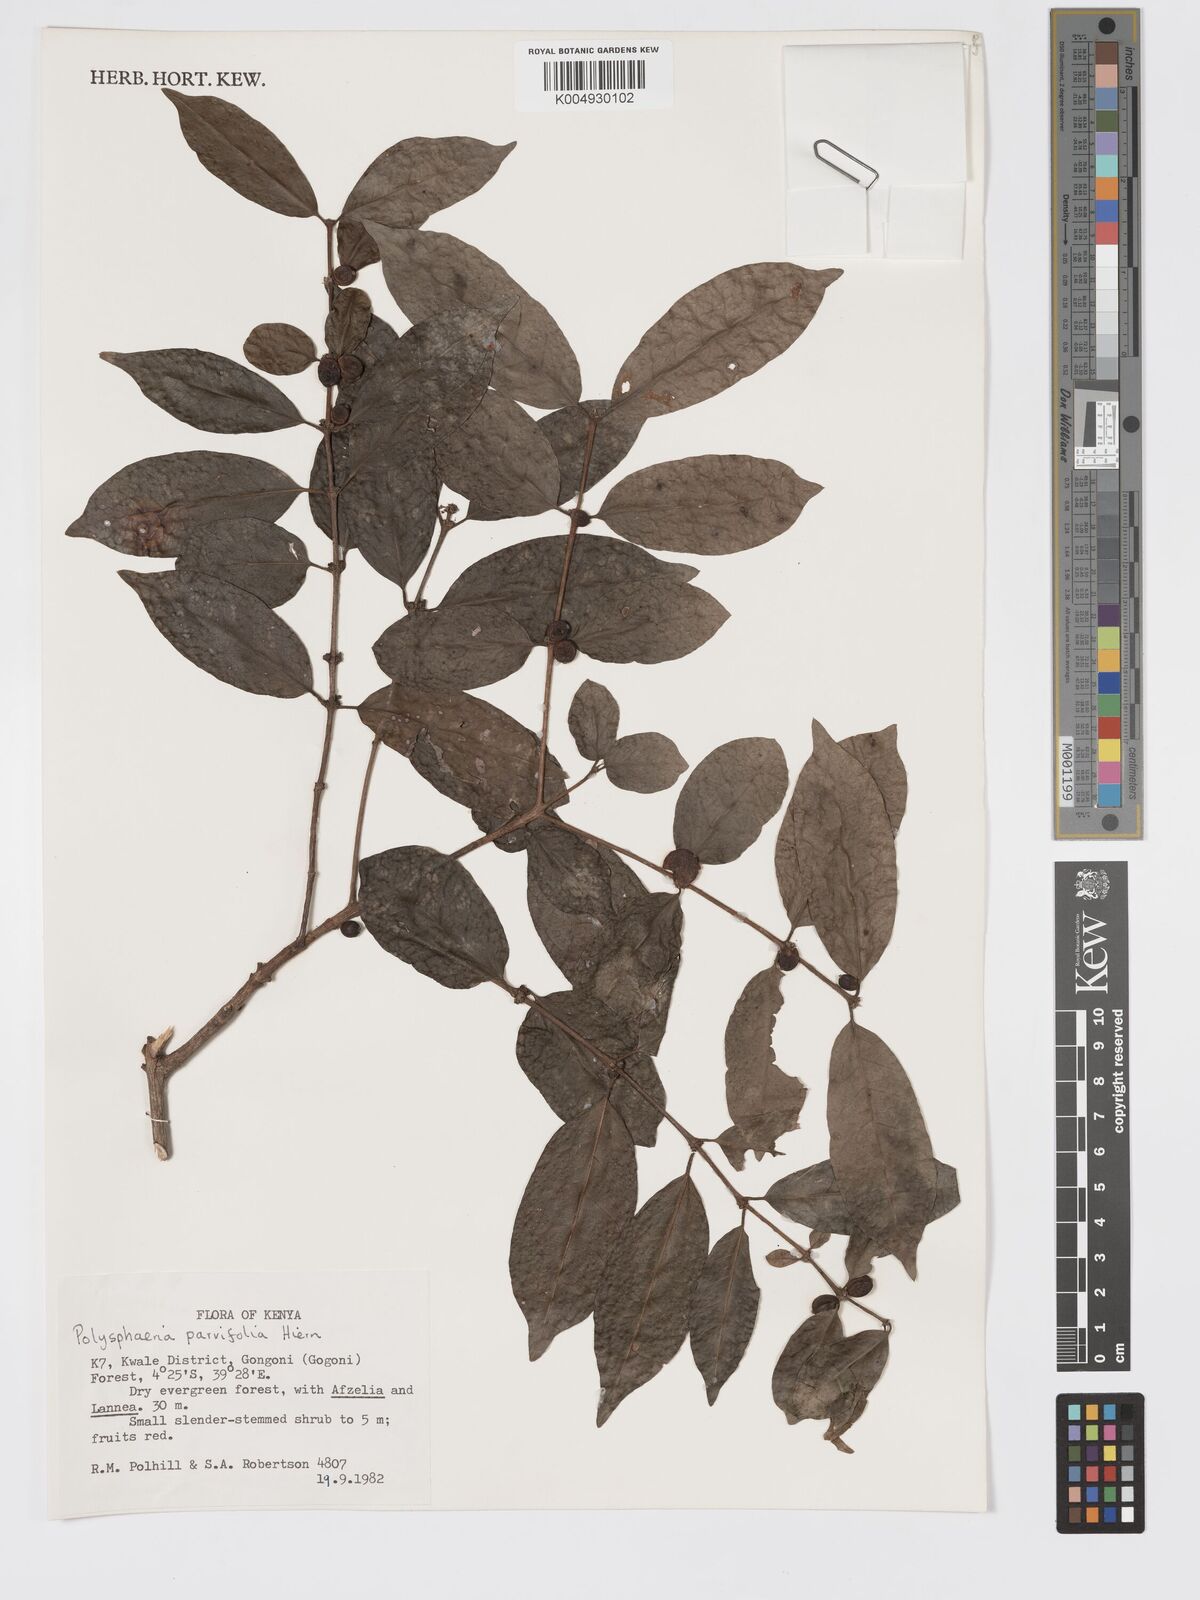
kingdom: Plantae
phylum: Tracheophyta
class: Magnoliopsida
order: Gentianales
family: Rubiaceae
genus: Eumachia
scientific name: Eumachia parviflora
